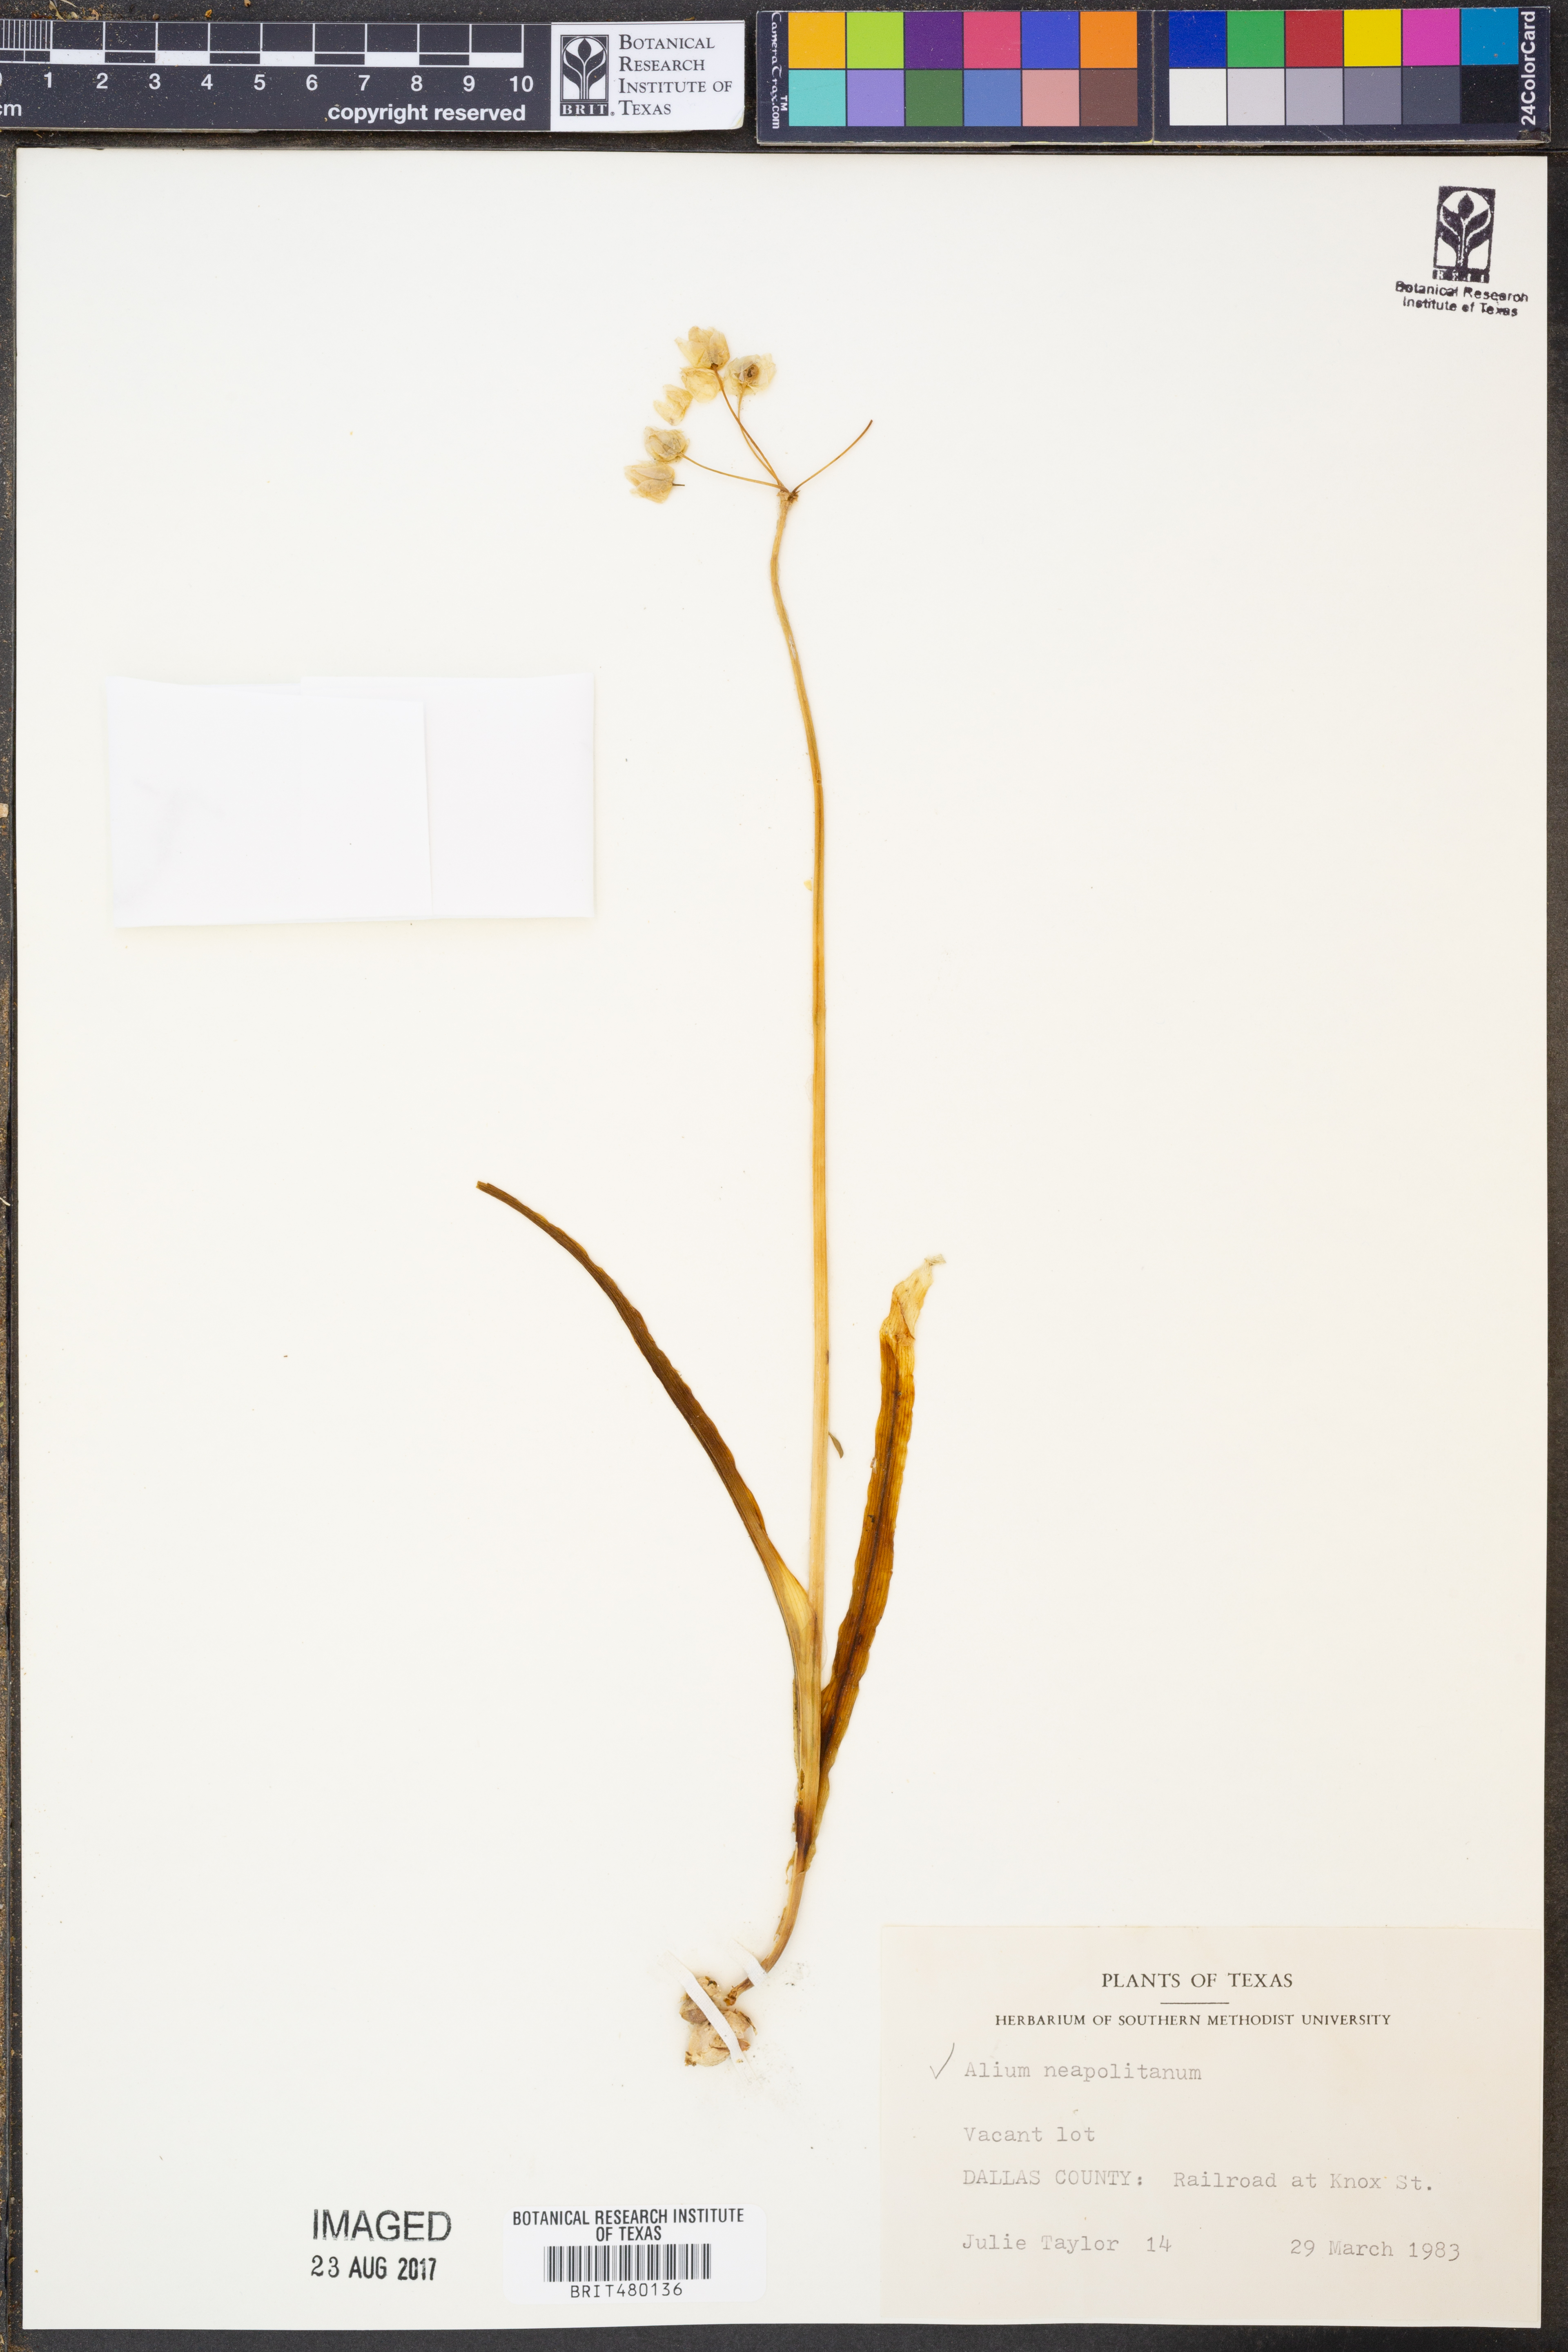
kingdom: Plantae
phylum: Tracheophyta
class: Liliopsida
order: Asparagales
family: Amaryllidaceae
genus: Allium
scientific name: Allium neapolitanum
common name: Neapolitan garlic
